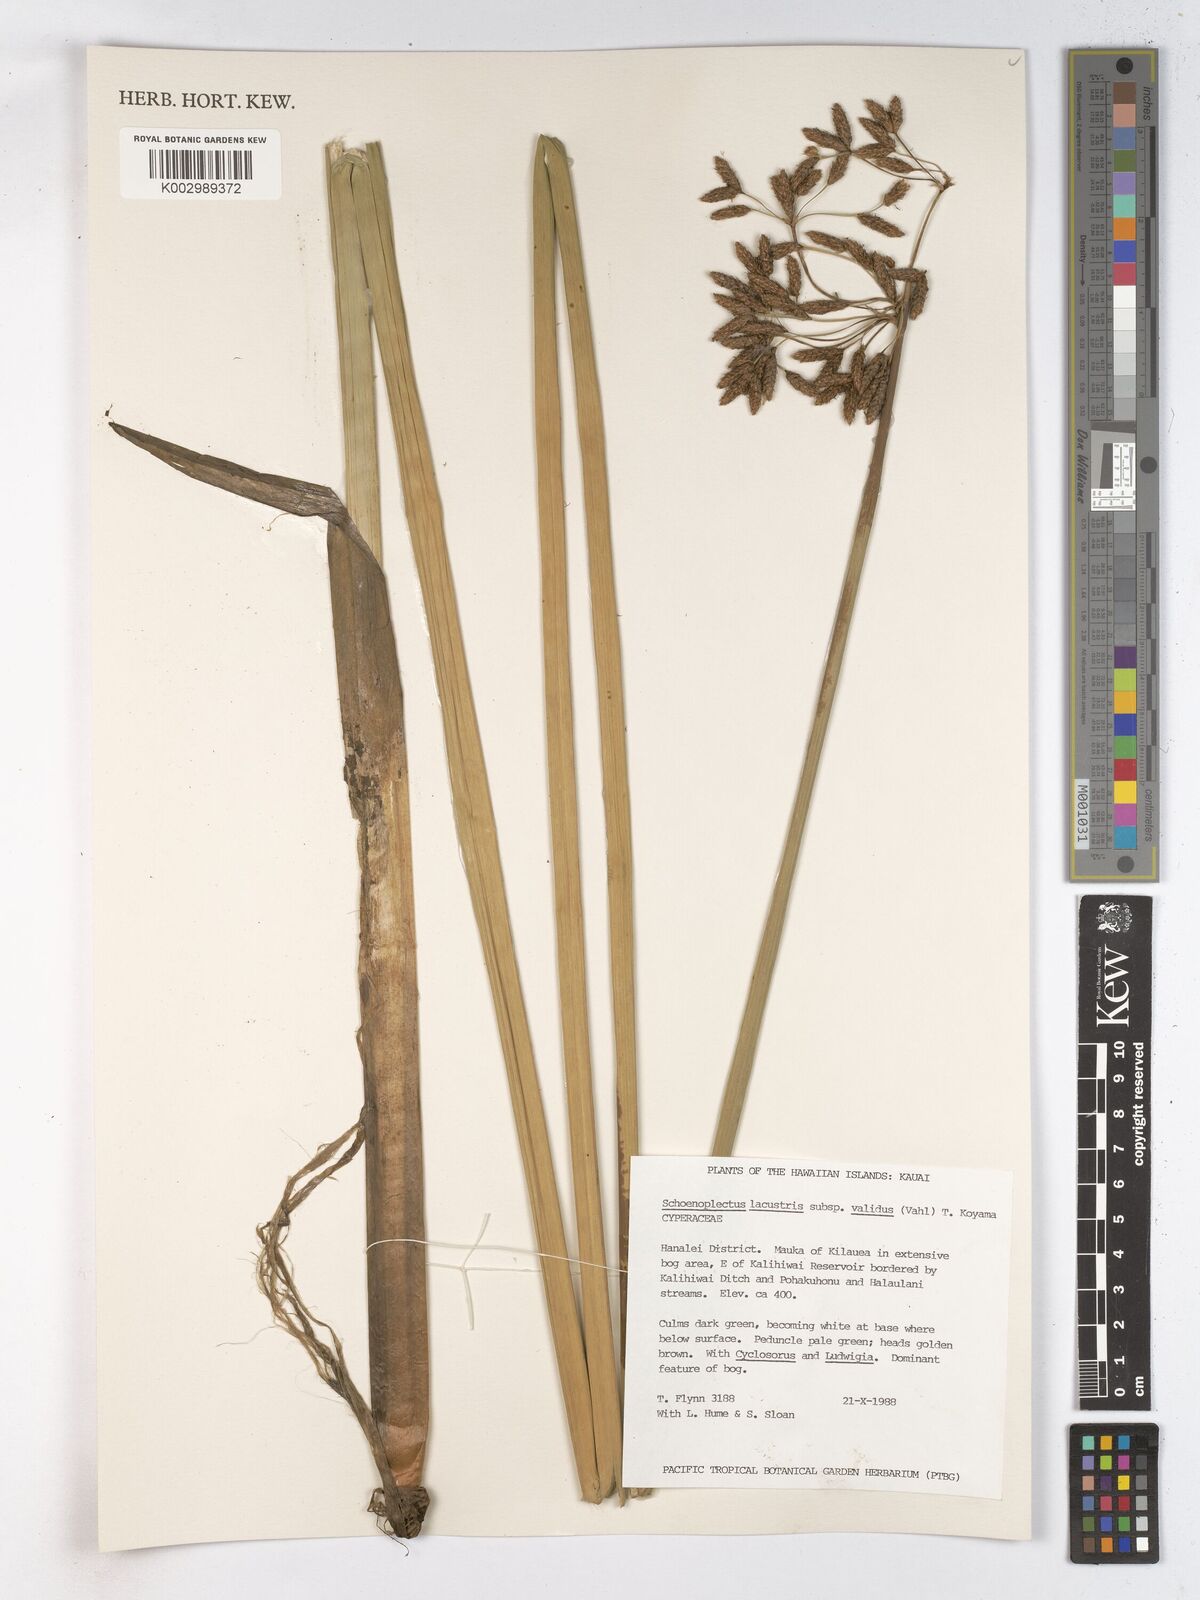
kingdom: Plantae
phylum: Tracheophyta
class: Liliopsida
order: Poales
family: Cyperaceae
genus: Schoenoplectus
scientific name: Schoenoplectus tabernaemontani
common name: Grey club-rush
